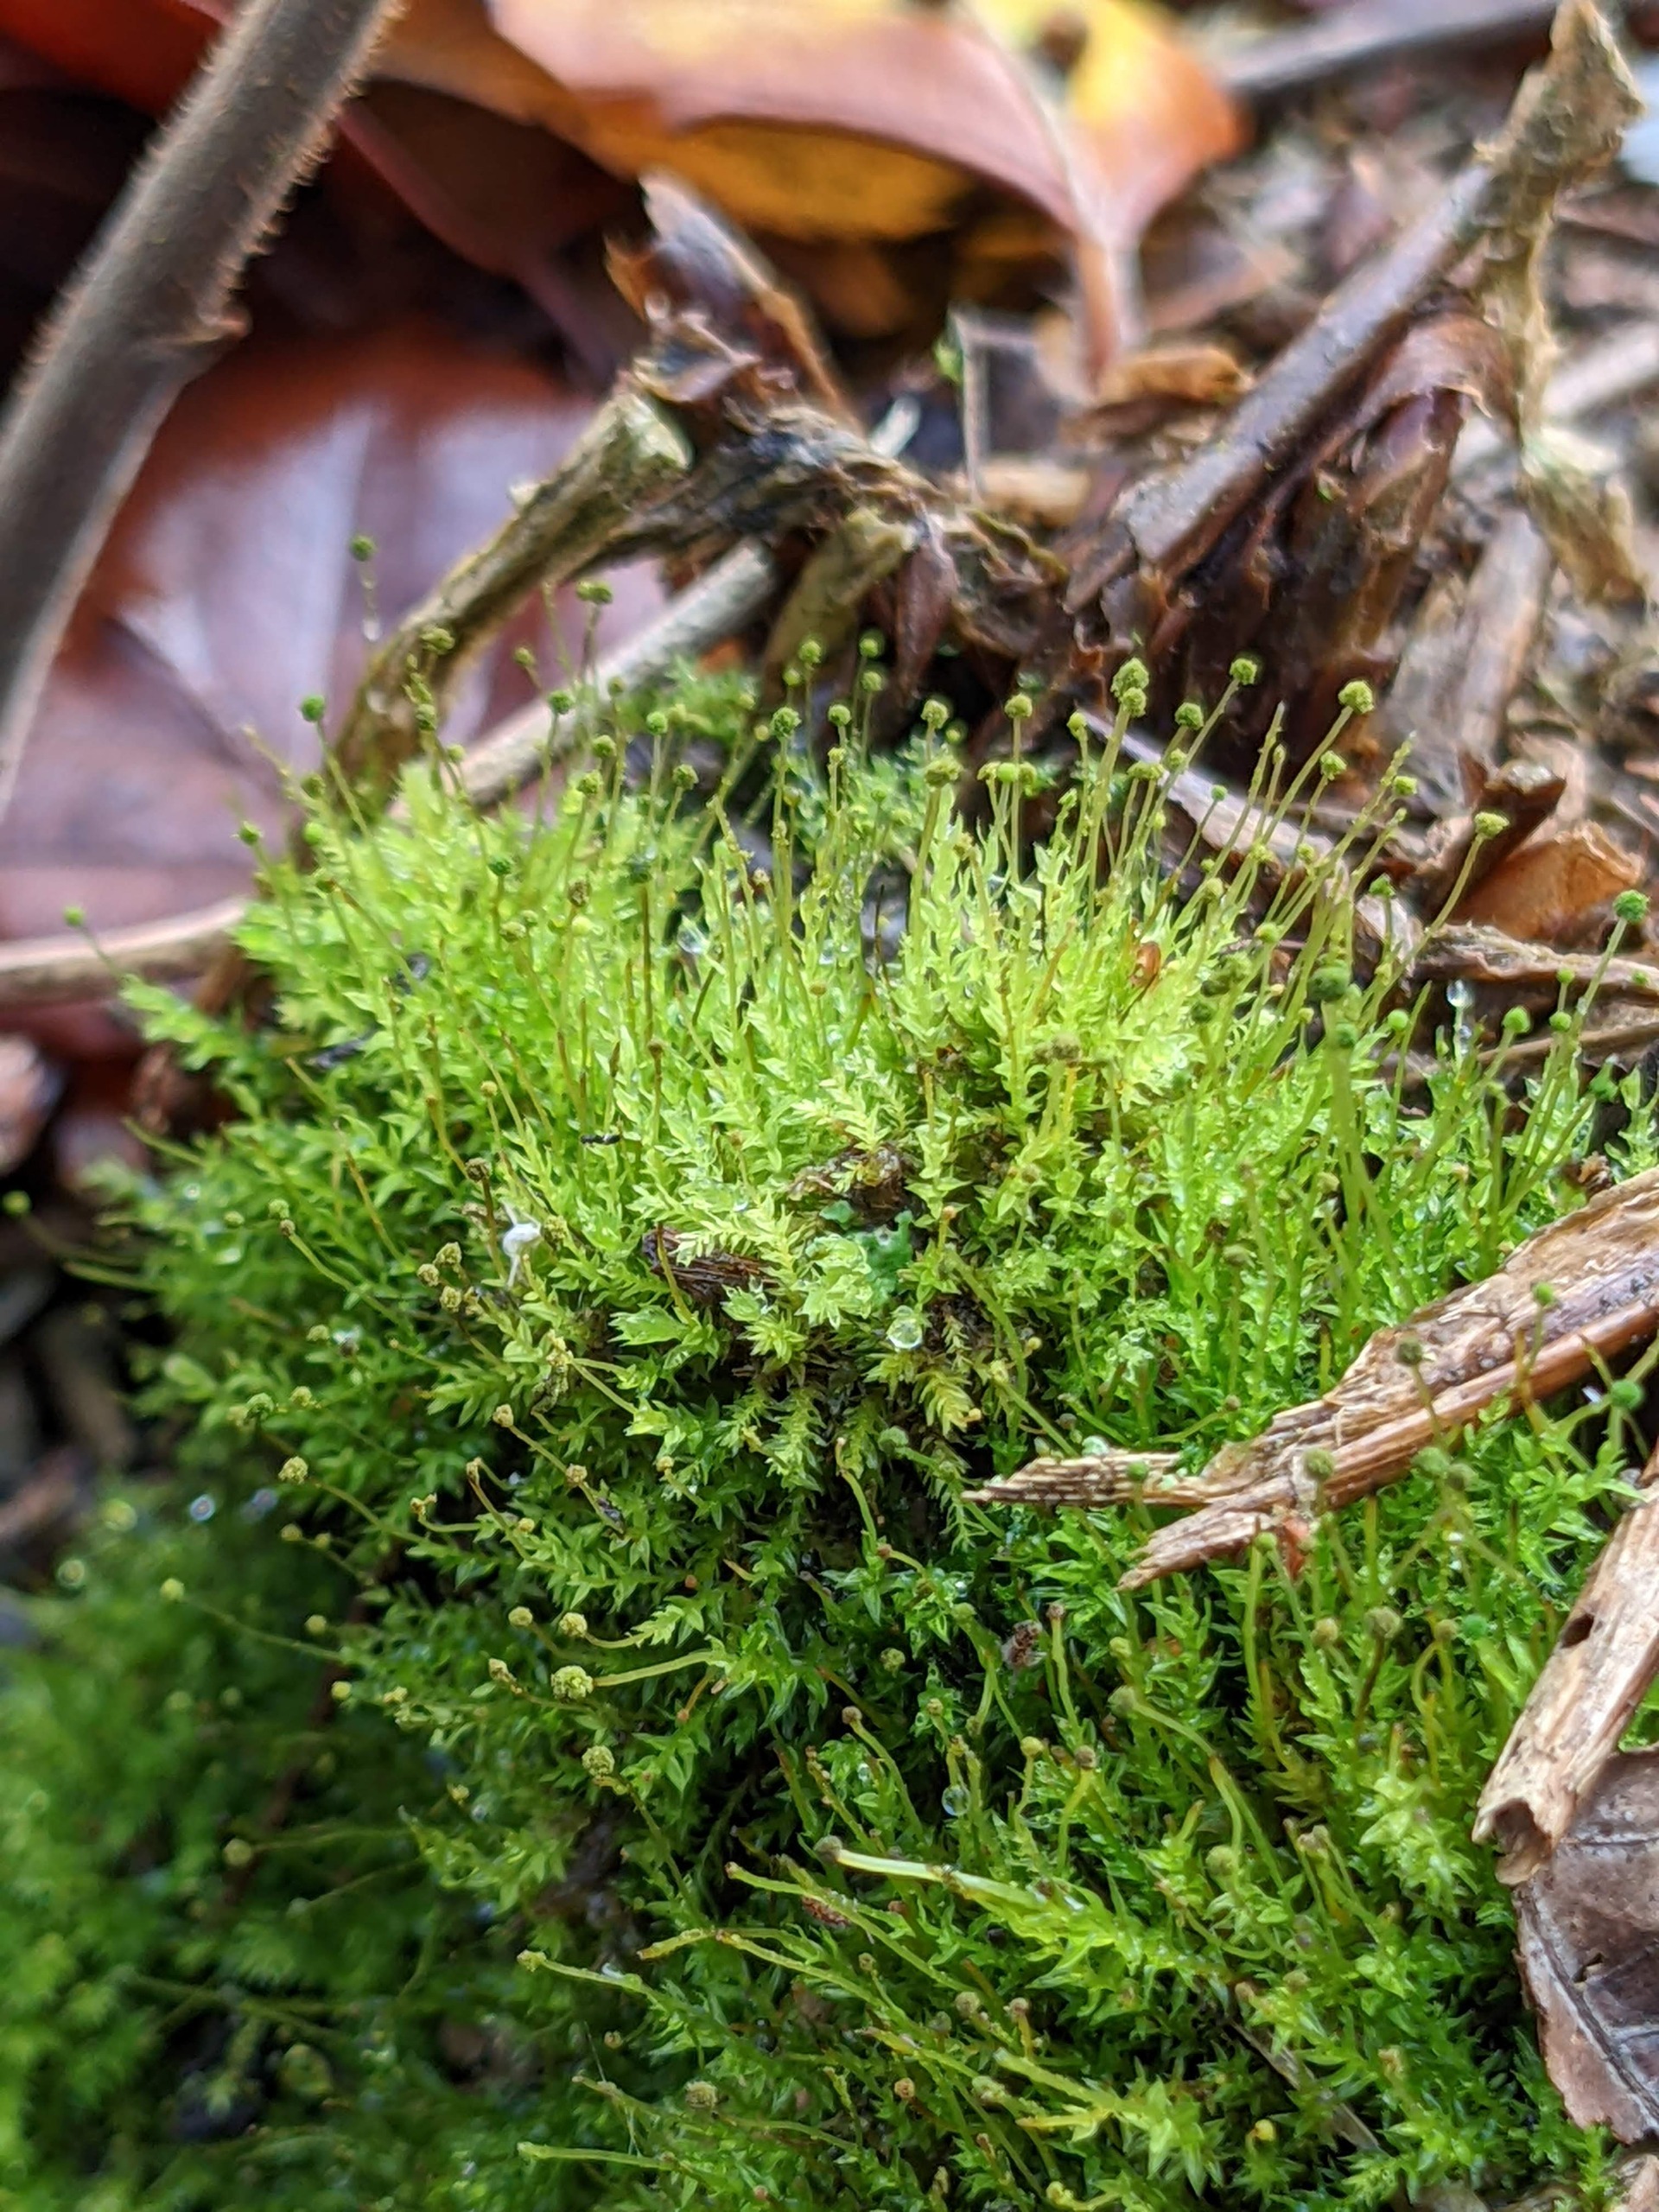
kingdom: Plantae
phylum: Bryophyta
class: Bryopsida
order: Aulacomniales
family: Aulacomniaceae
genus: Aulacomnium
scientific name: Aulacomnium androgynum
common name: Kugle-filtmos
